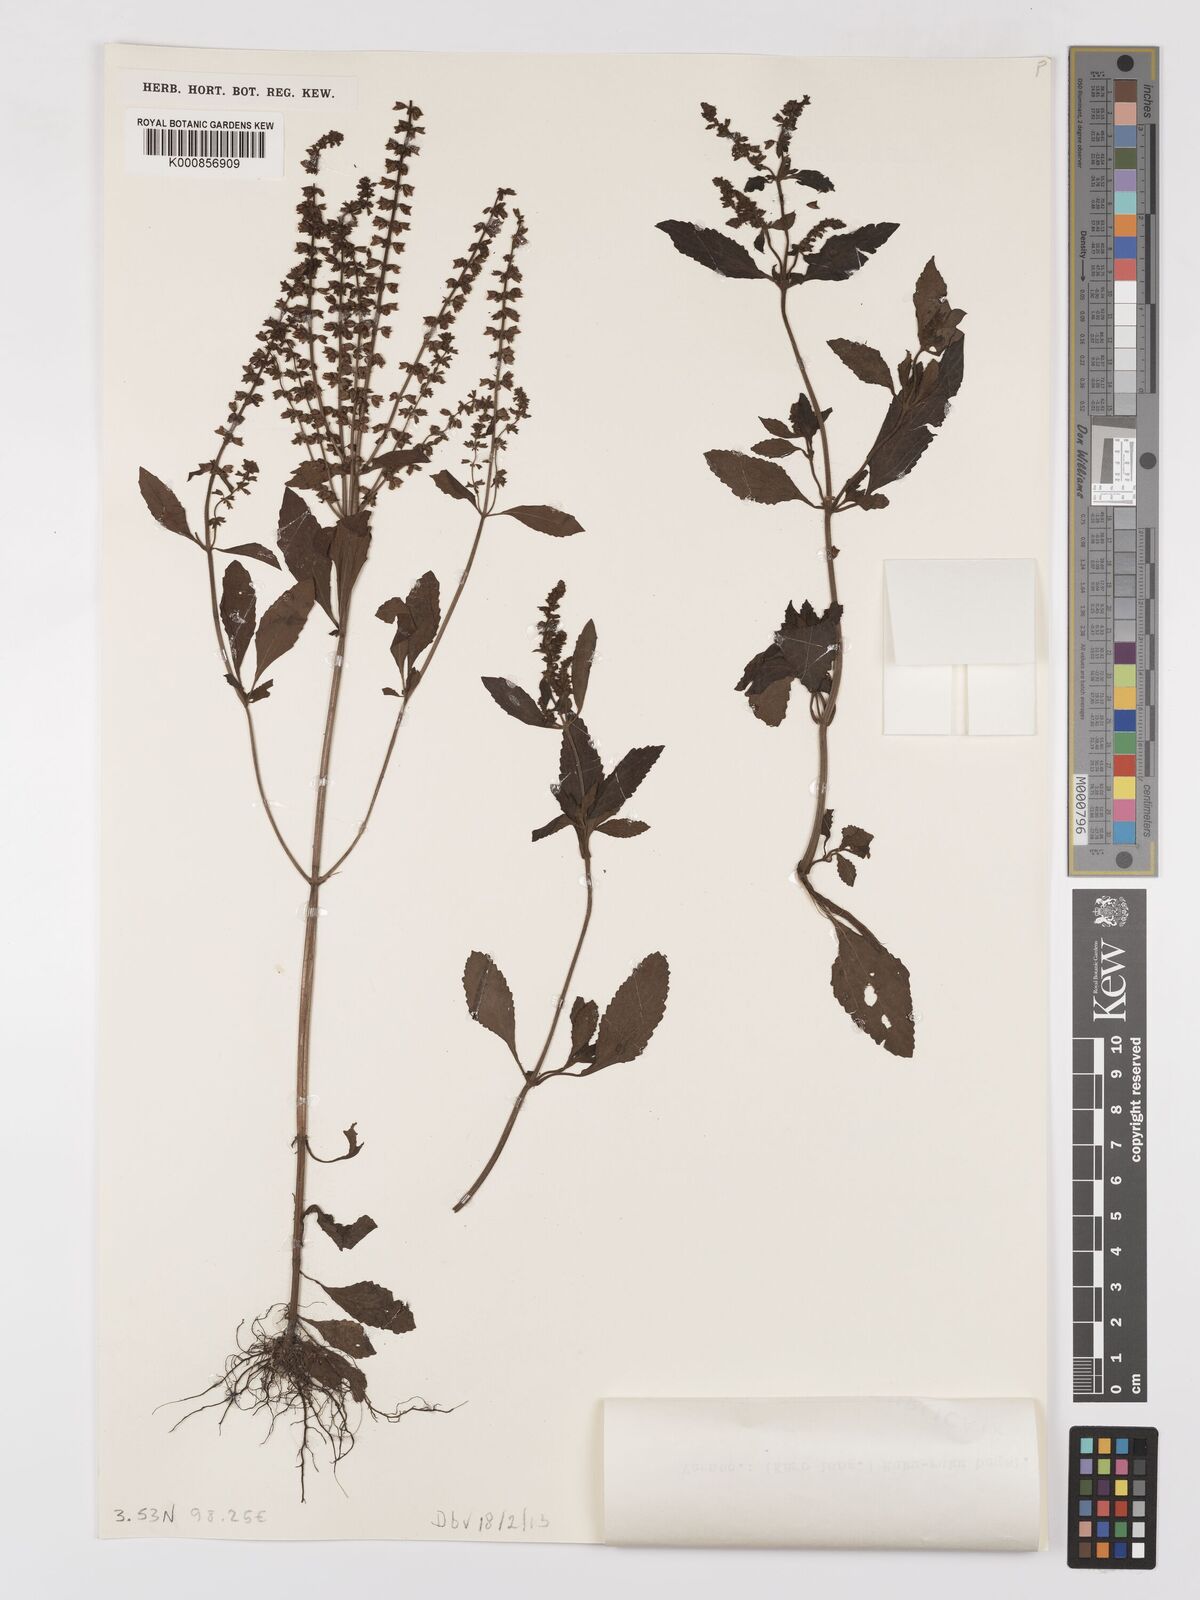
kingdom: Plantae
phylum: Tracheophyta
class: Magnoliopsida
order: Lamiales
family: Lamiaceae
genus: Salvia
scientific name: Salvia plebeia
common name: Australian sage
